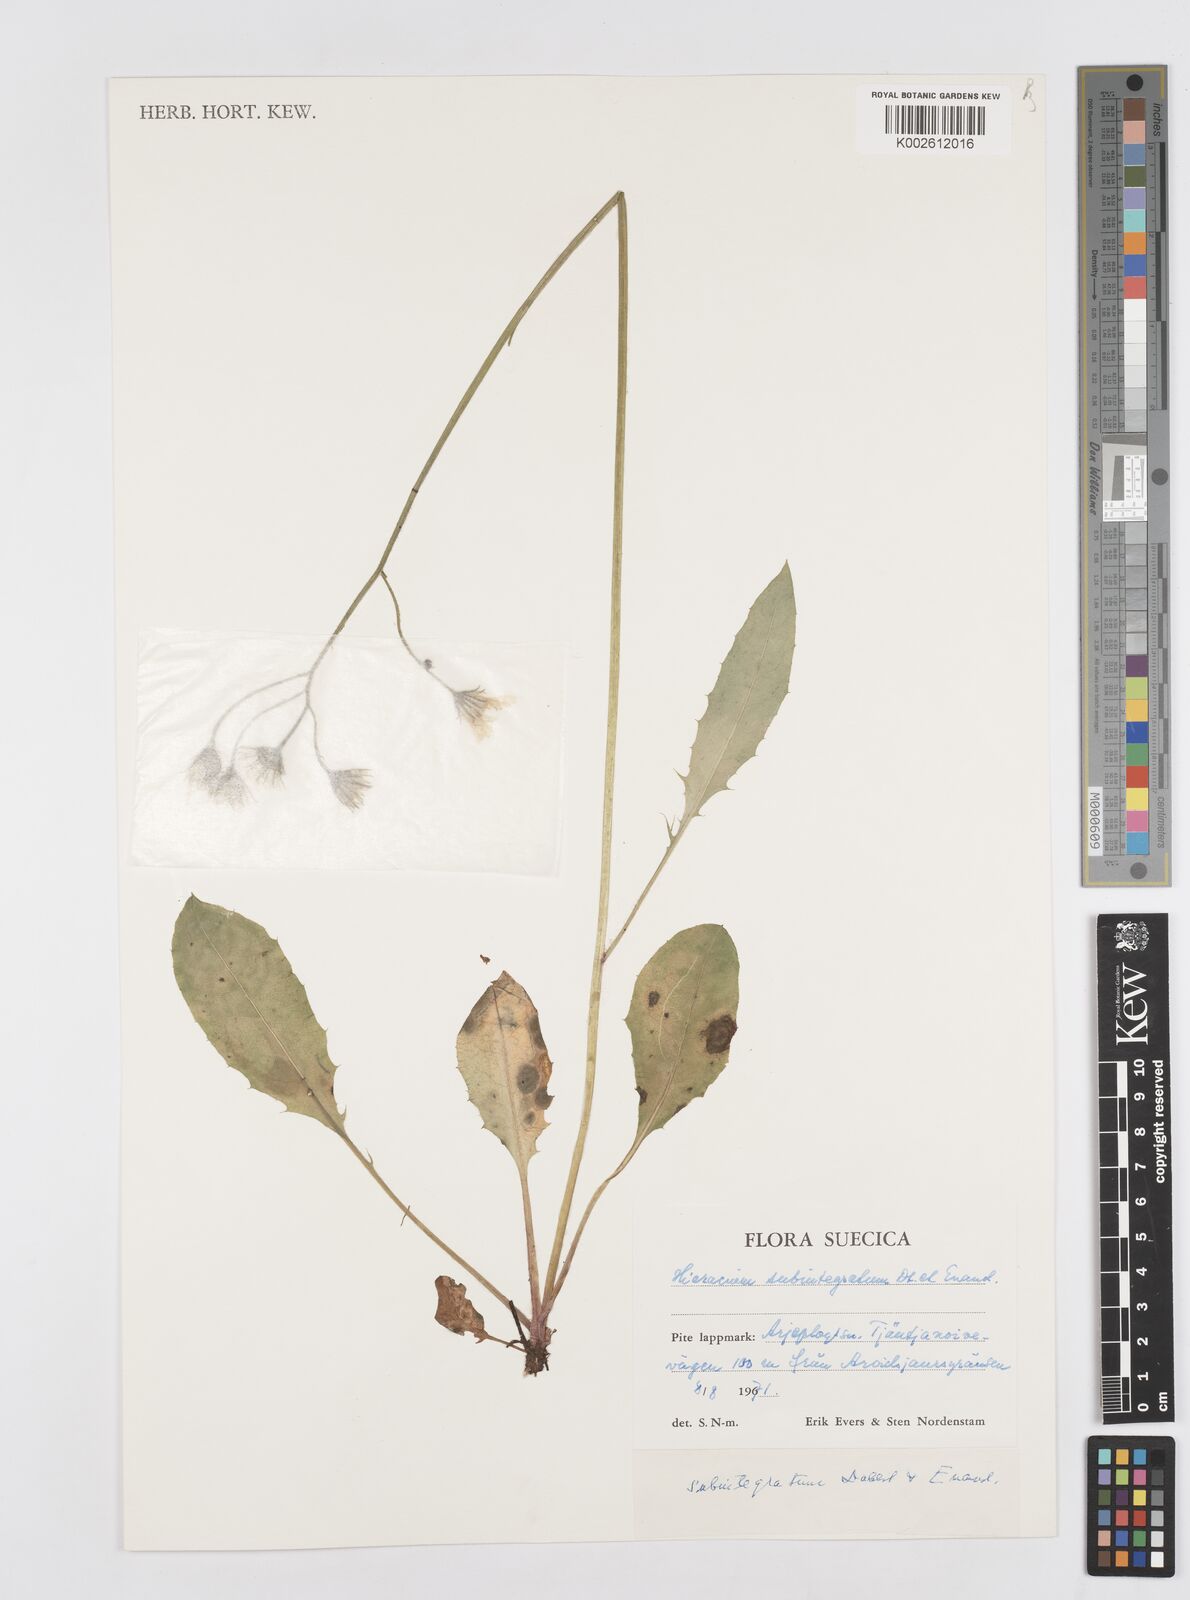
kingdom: Plantae
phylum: Tracheophyta
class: Magnoliopsida
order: Asterales
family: Asteraceae
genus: Hieracium
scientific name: Hieracium subintegratum
